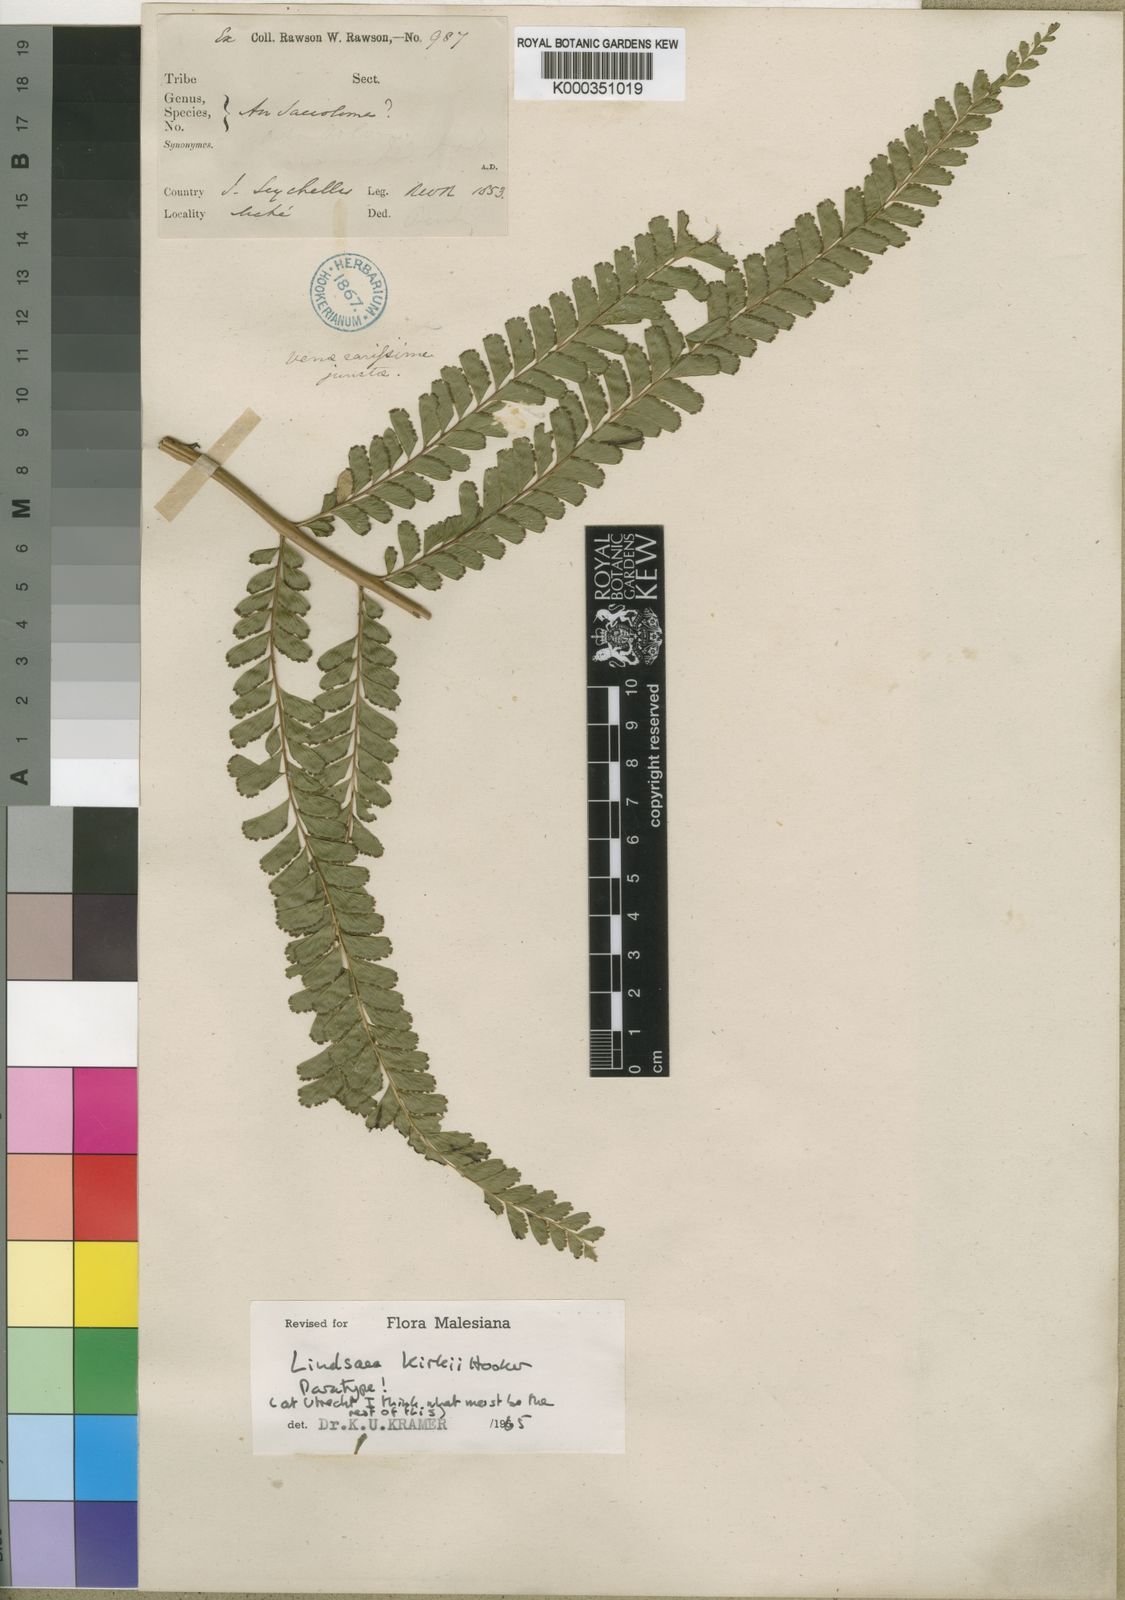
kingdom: Plantae
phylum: Tracheophyta
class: Polypodiopsida
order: Polypodiales
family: Lindsaeaceae
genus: Nesolindsaea
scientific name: Nesolindsaea kirkii
